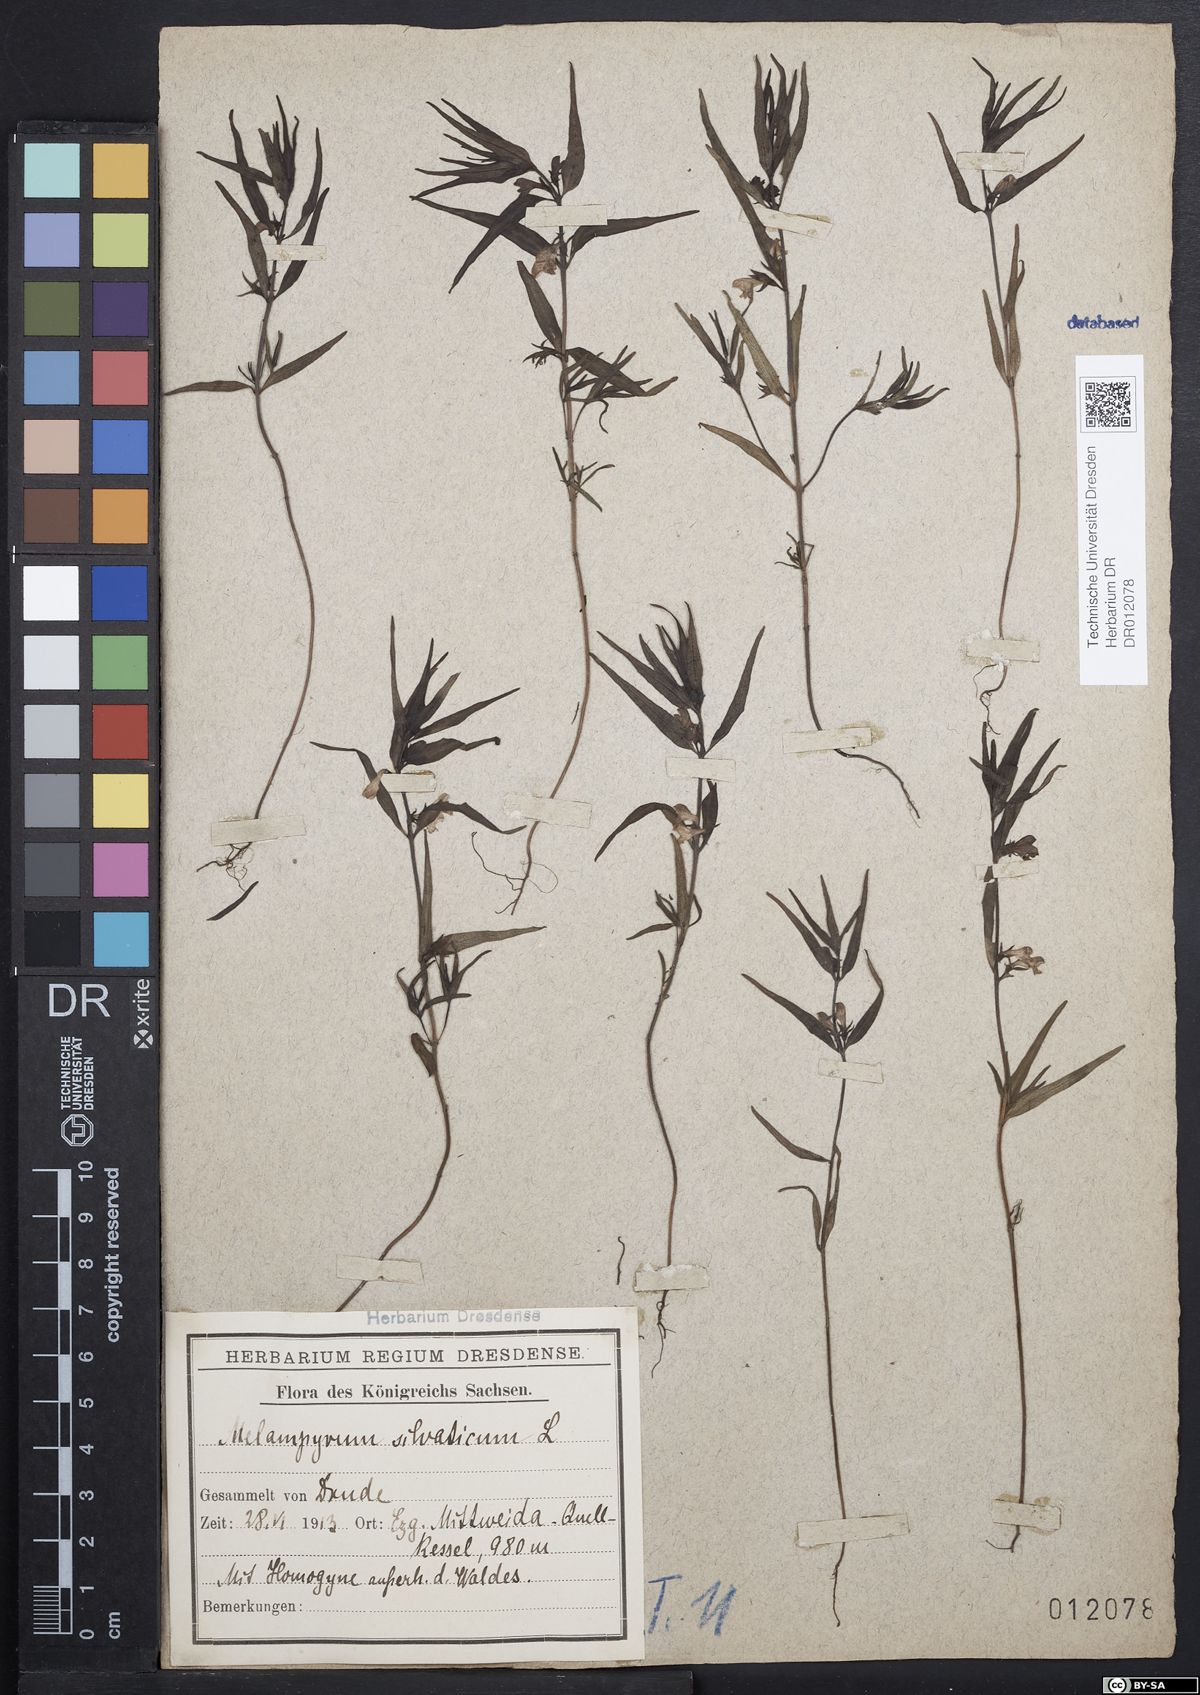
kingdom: Plantae
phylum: Tracheophyta
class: Magnoliopsida
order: Lamiales
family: Orobanchaceae
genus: Melampyrum
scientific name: Melampyrum sylvaticum
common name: Small cow-wheat
